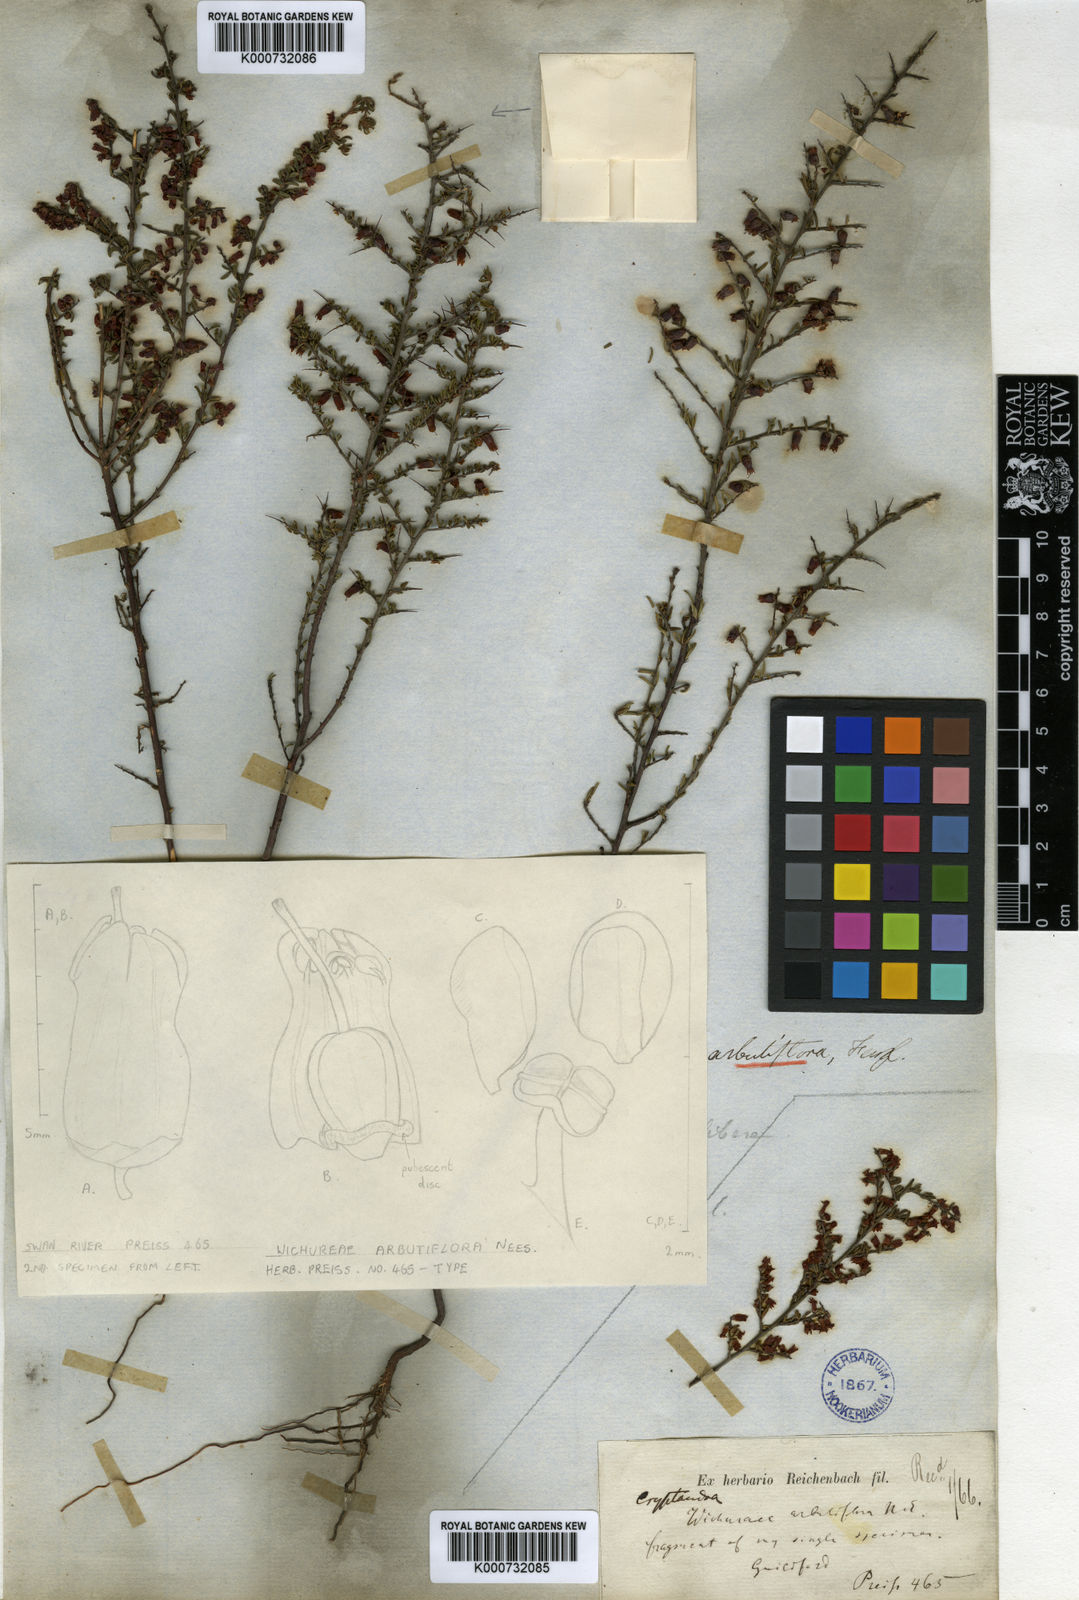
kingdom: Plantae
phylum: Tracheophyta
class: Magnoliopsida
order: Rosales
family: Rhamnaceae
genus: Cryptandra
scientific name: Cryptandra arbutiflora
